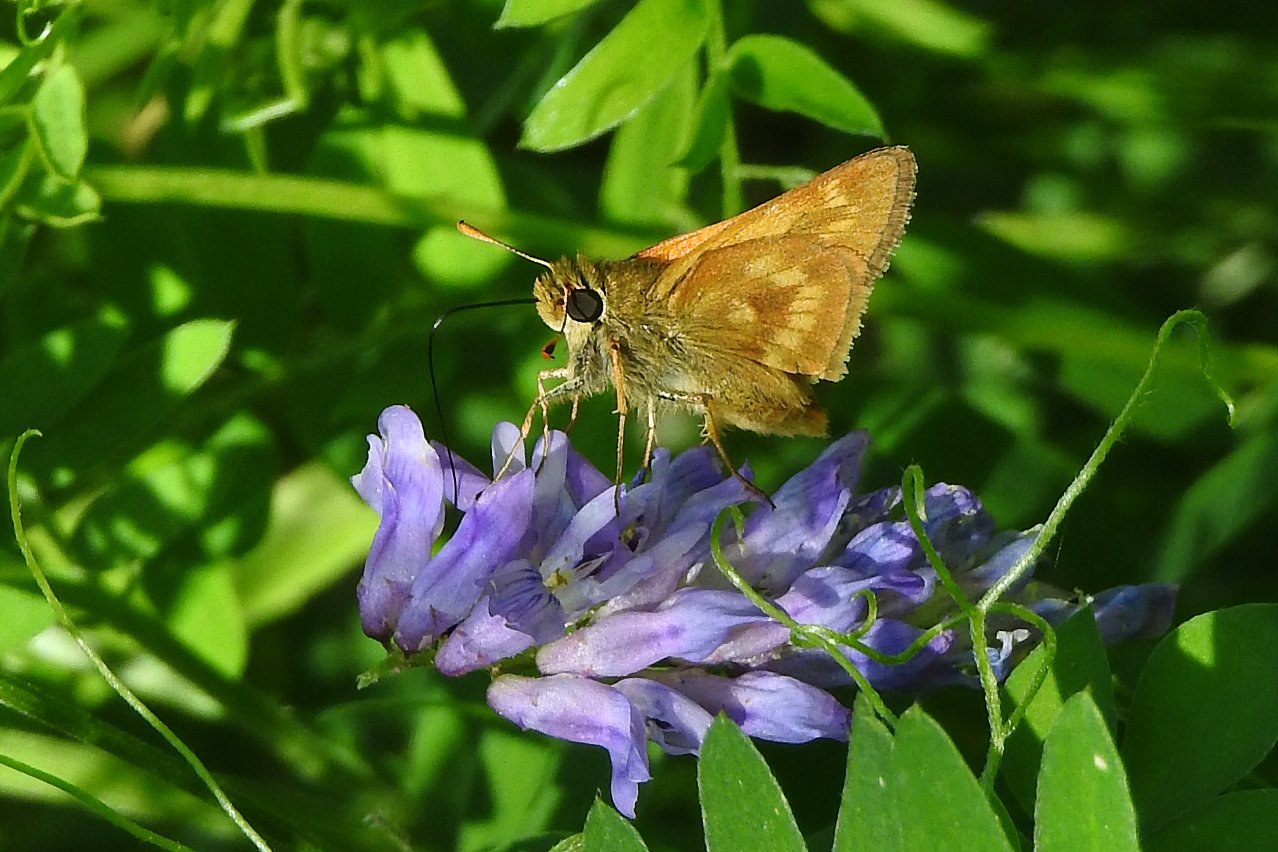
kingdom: Animalia
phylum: Arthropoda
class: Insecta
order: Lepidoptera
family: Hesperiidae
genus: Polites
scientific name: Polites
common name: Long Dash Skipper
